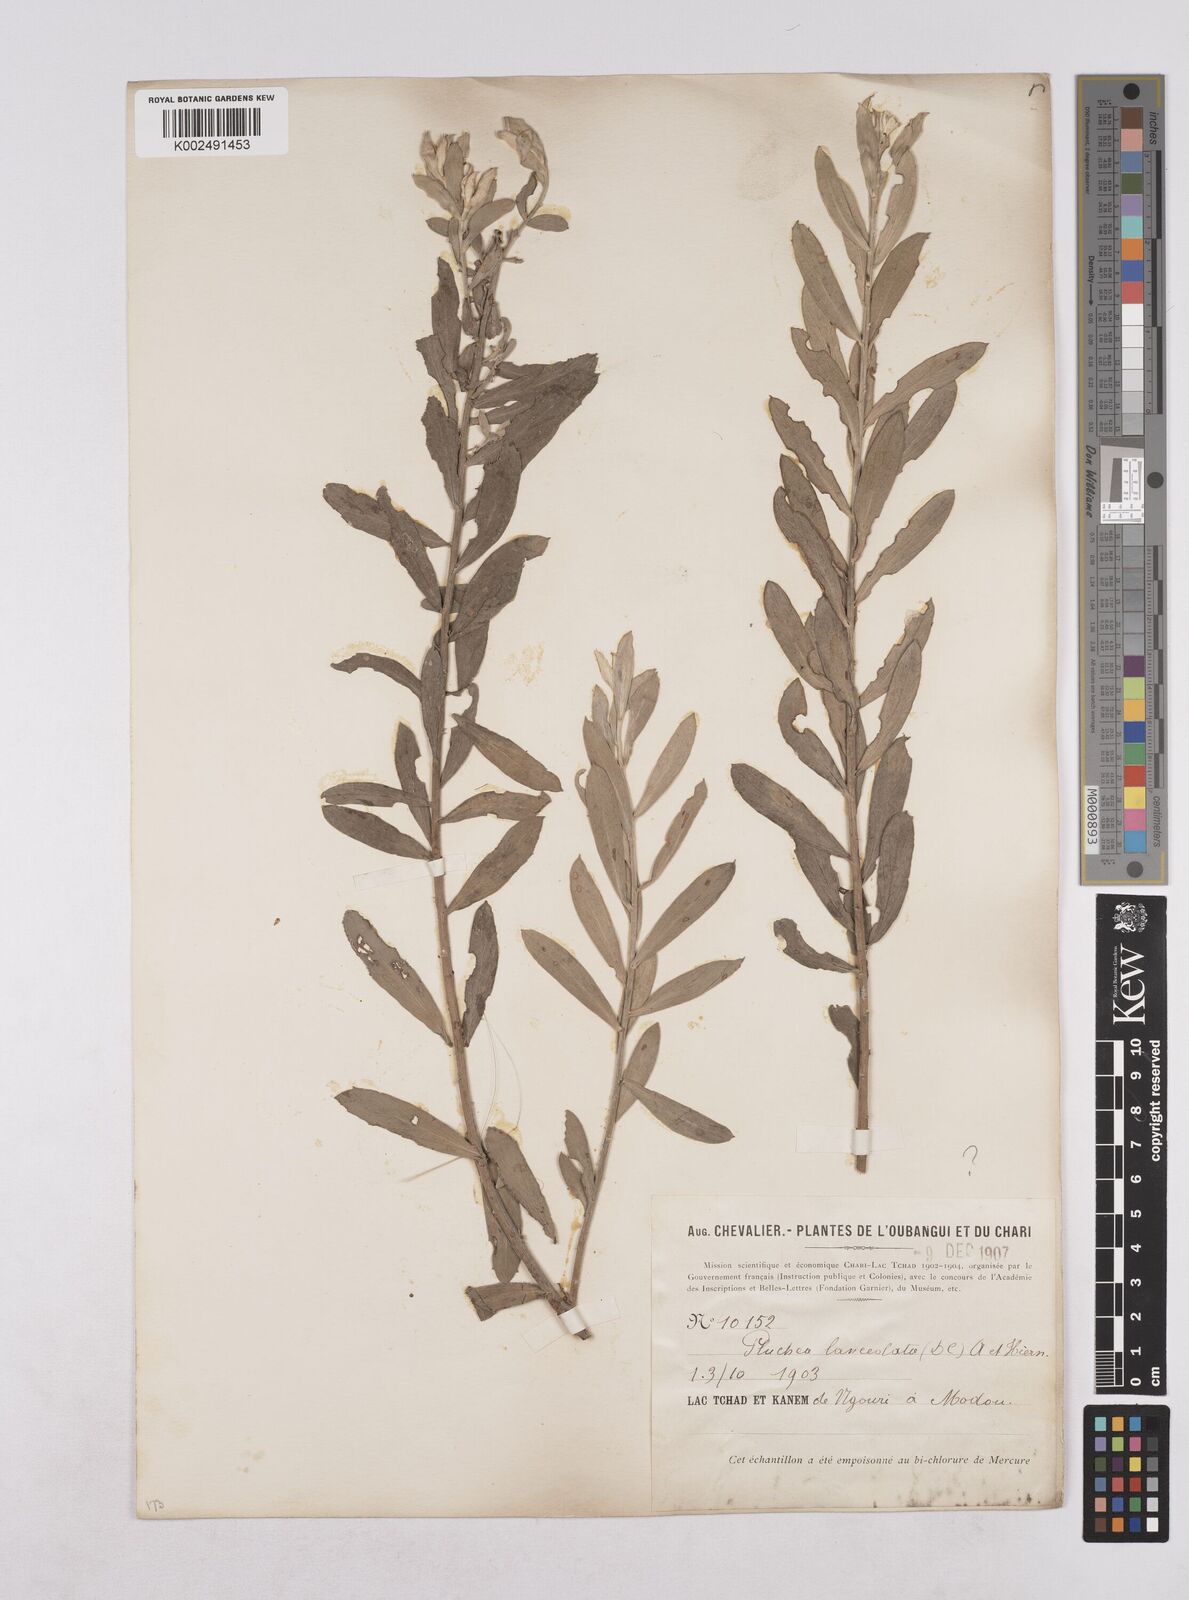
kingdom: Plantae
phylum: Tracheophyta
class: Magnoliopsida
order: Asterales
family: Asteraceae
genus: Pluchea
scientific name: Pluchea lanceolata
